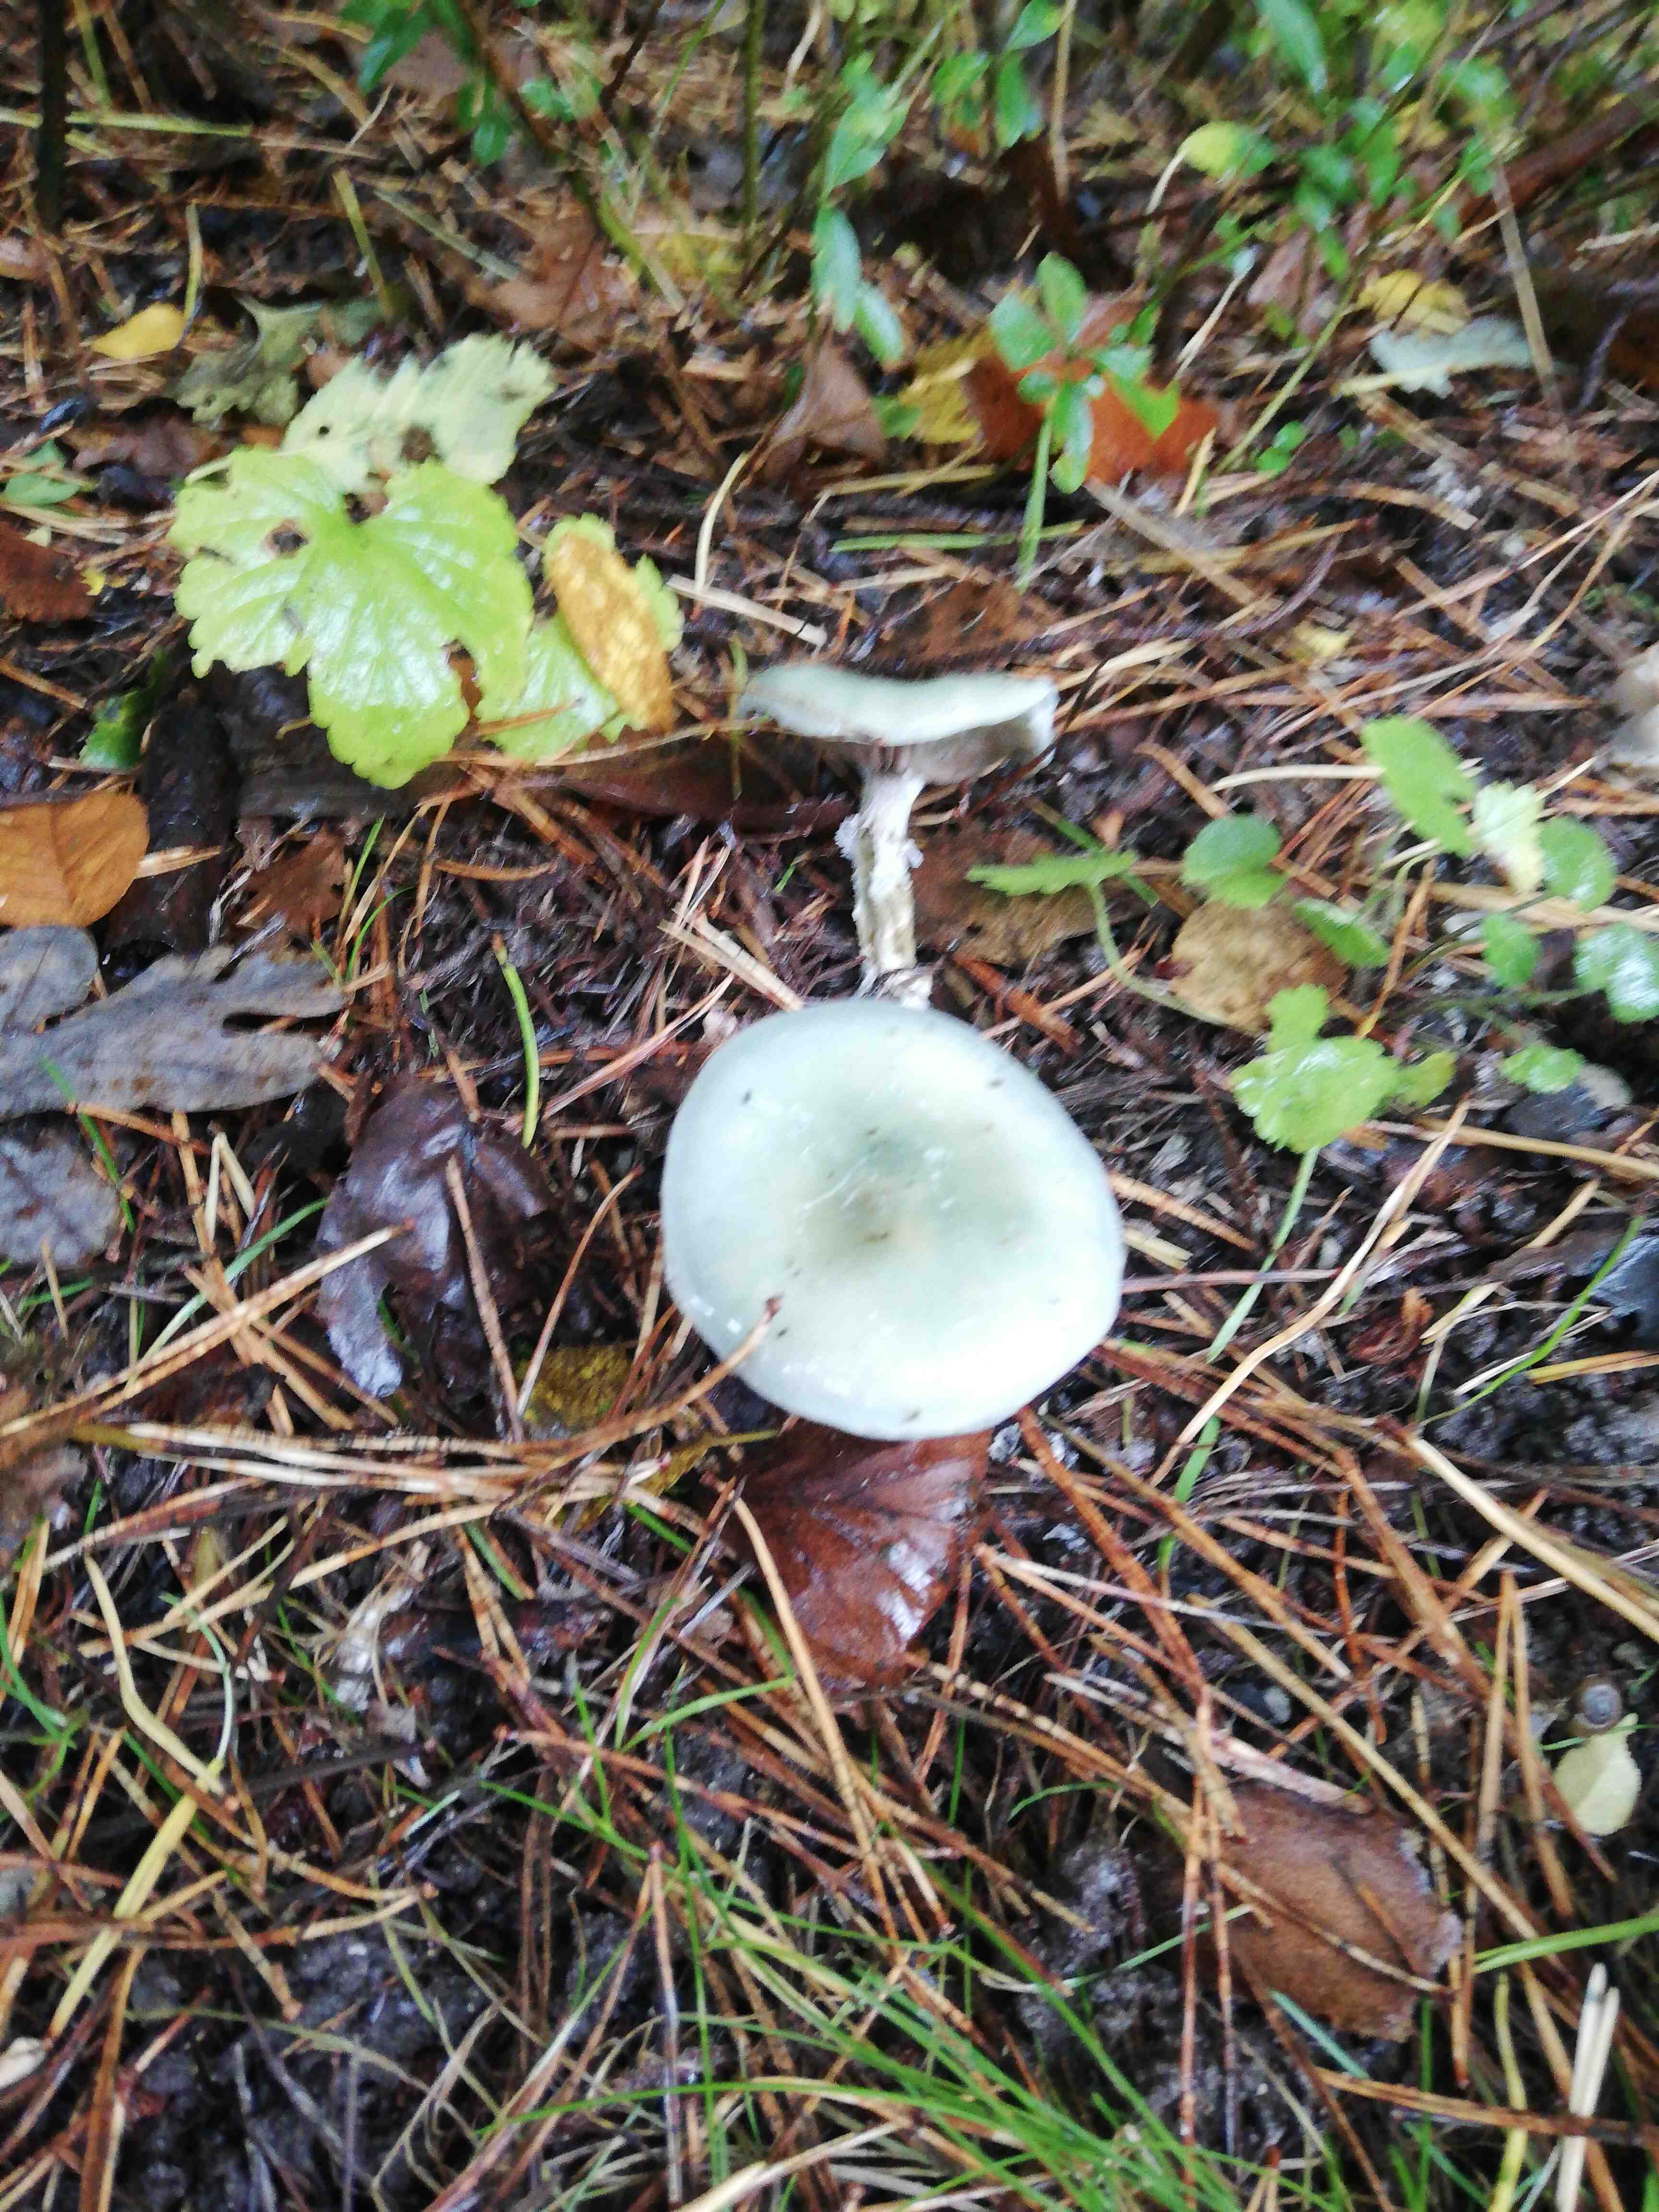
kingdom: Fungi
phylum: Basidiomycota
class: Agaricomycetes
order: Agaricales
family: Strophariaceae
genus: Stropharia
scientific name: Stropharia
